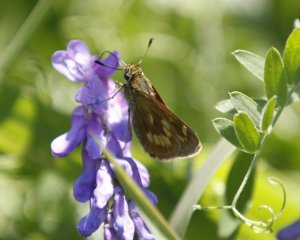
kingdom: Animalia
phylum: Arthropoda
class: Insecta
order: Lepidoptera
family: Hesperiidae
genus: Polites
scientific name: Polites
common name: Long Dash Skipper
